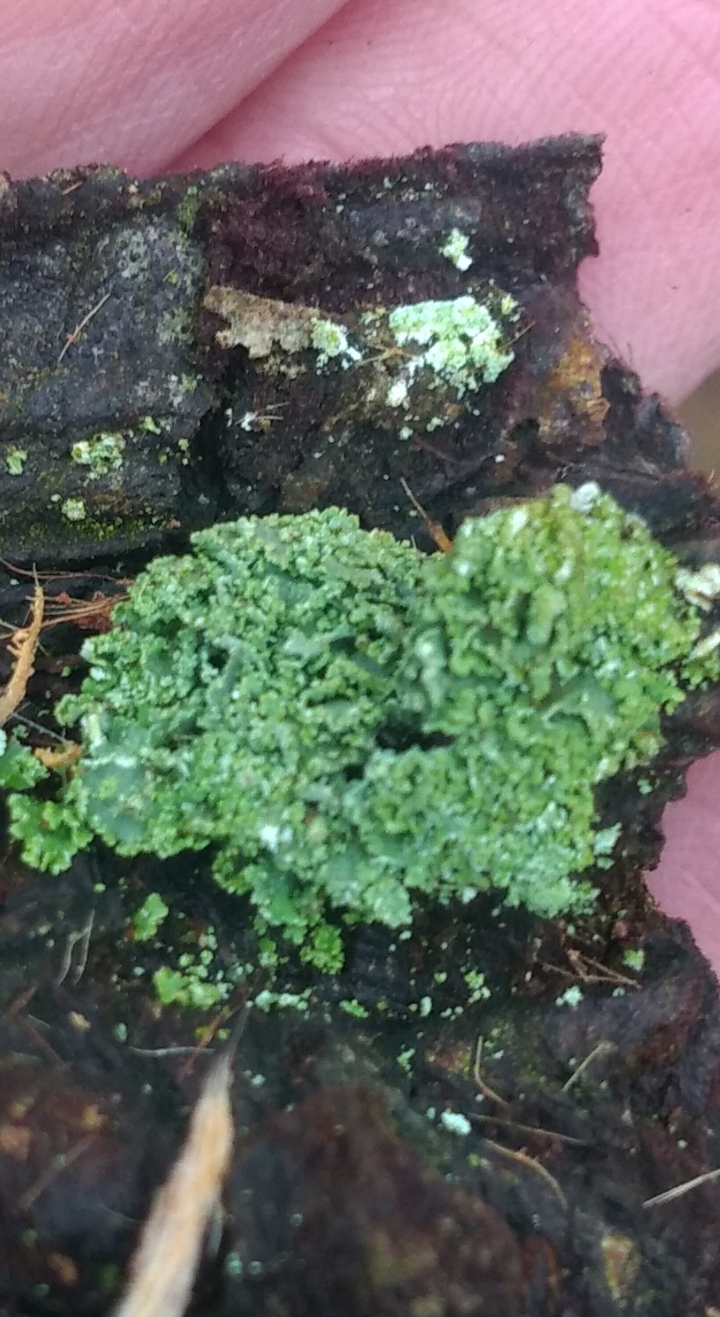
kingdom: Fungi
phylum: Ascomycota
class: Lecanoromycetes
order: Lecanorales
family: Cladoniaceae
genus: Cladonia
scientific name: Cladonia
